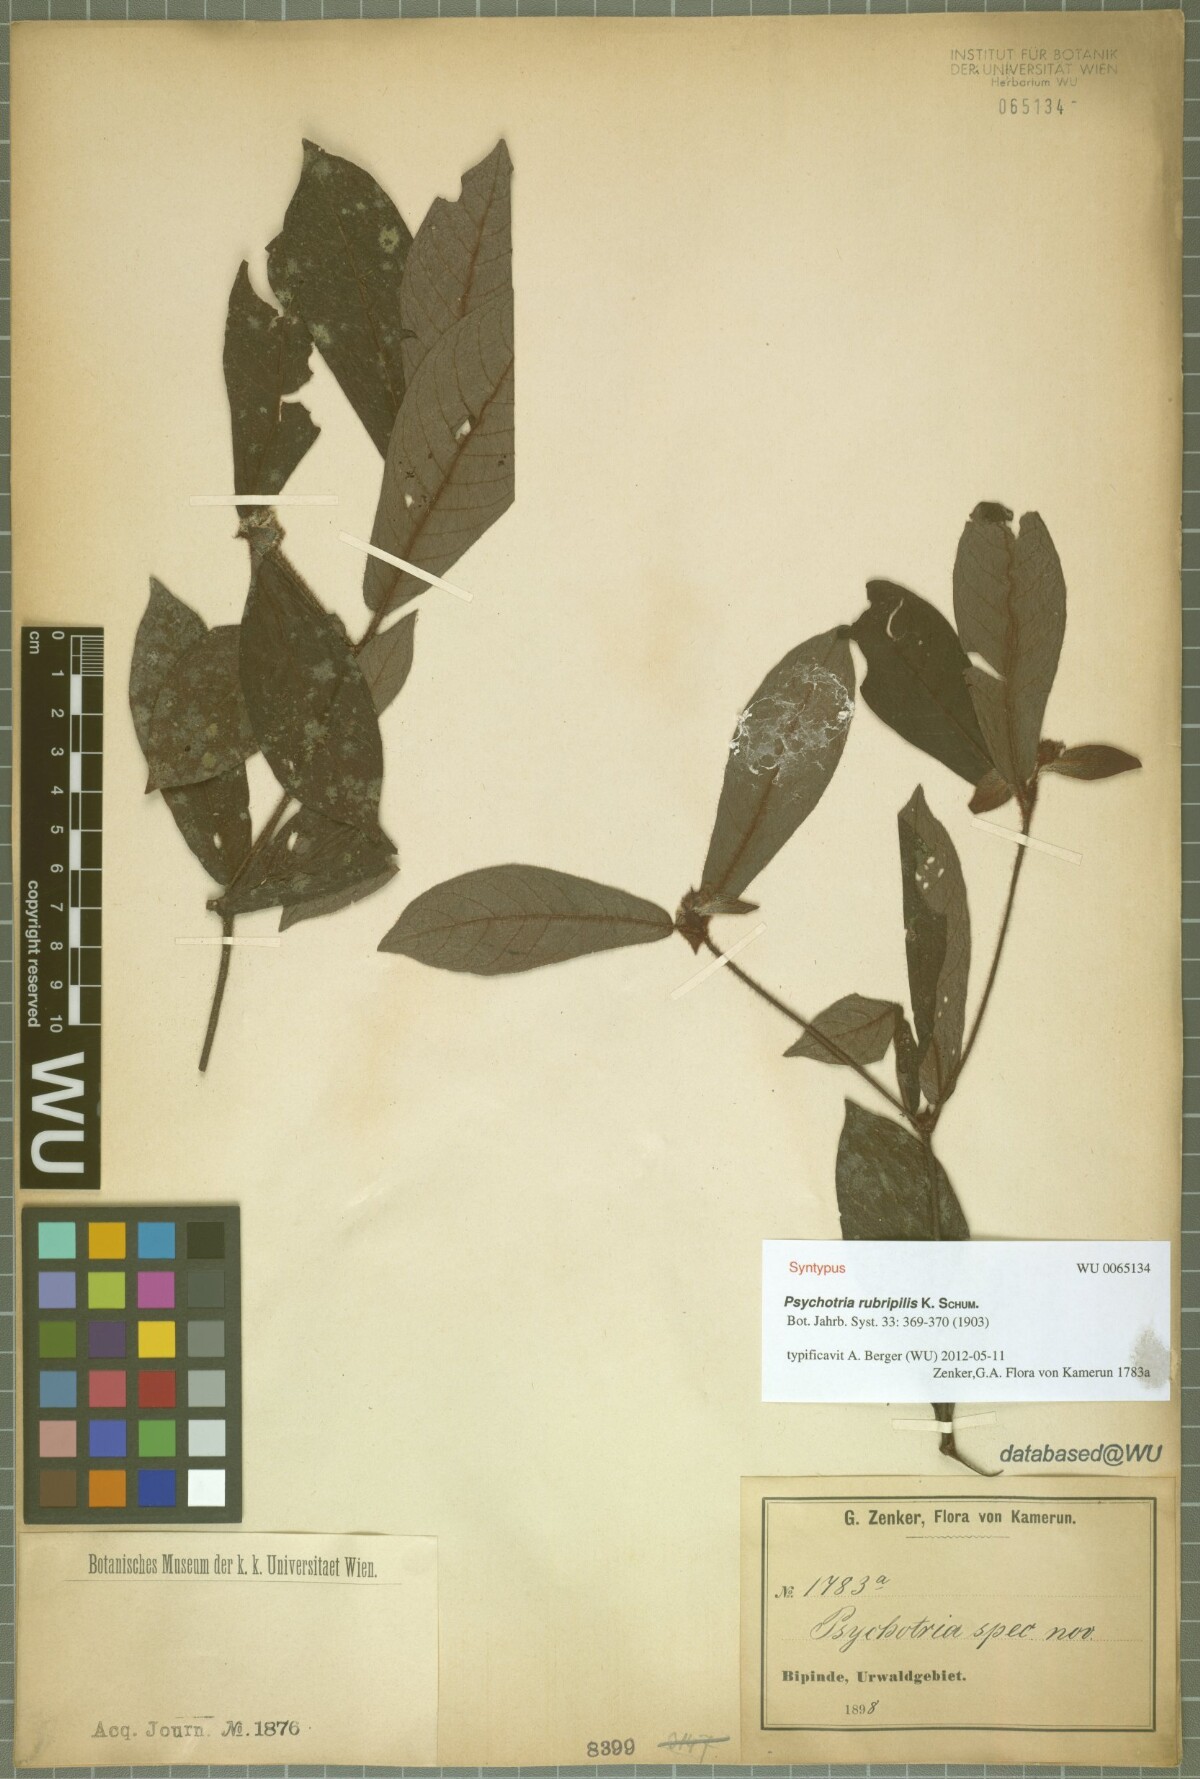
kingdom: Plantae
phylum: Tracheophyta
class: Magnoliopsida
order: Gentianales
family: Rubiaceae
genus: Psychotria
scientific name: Psychotria rubripilis
